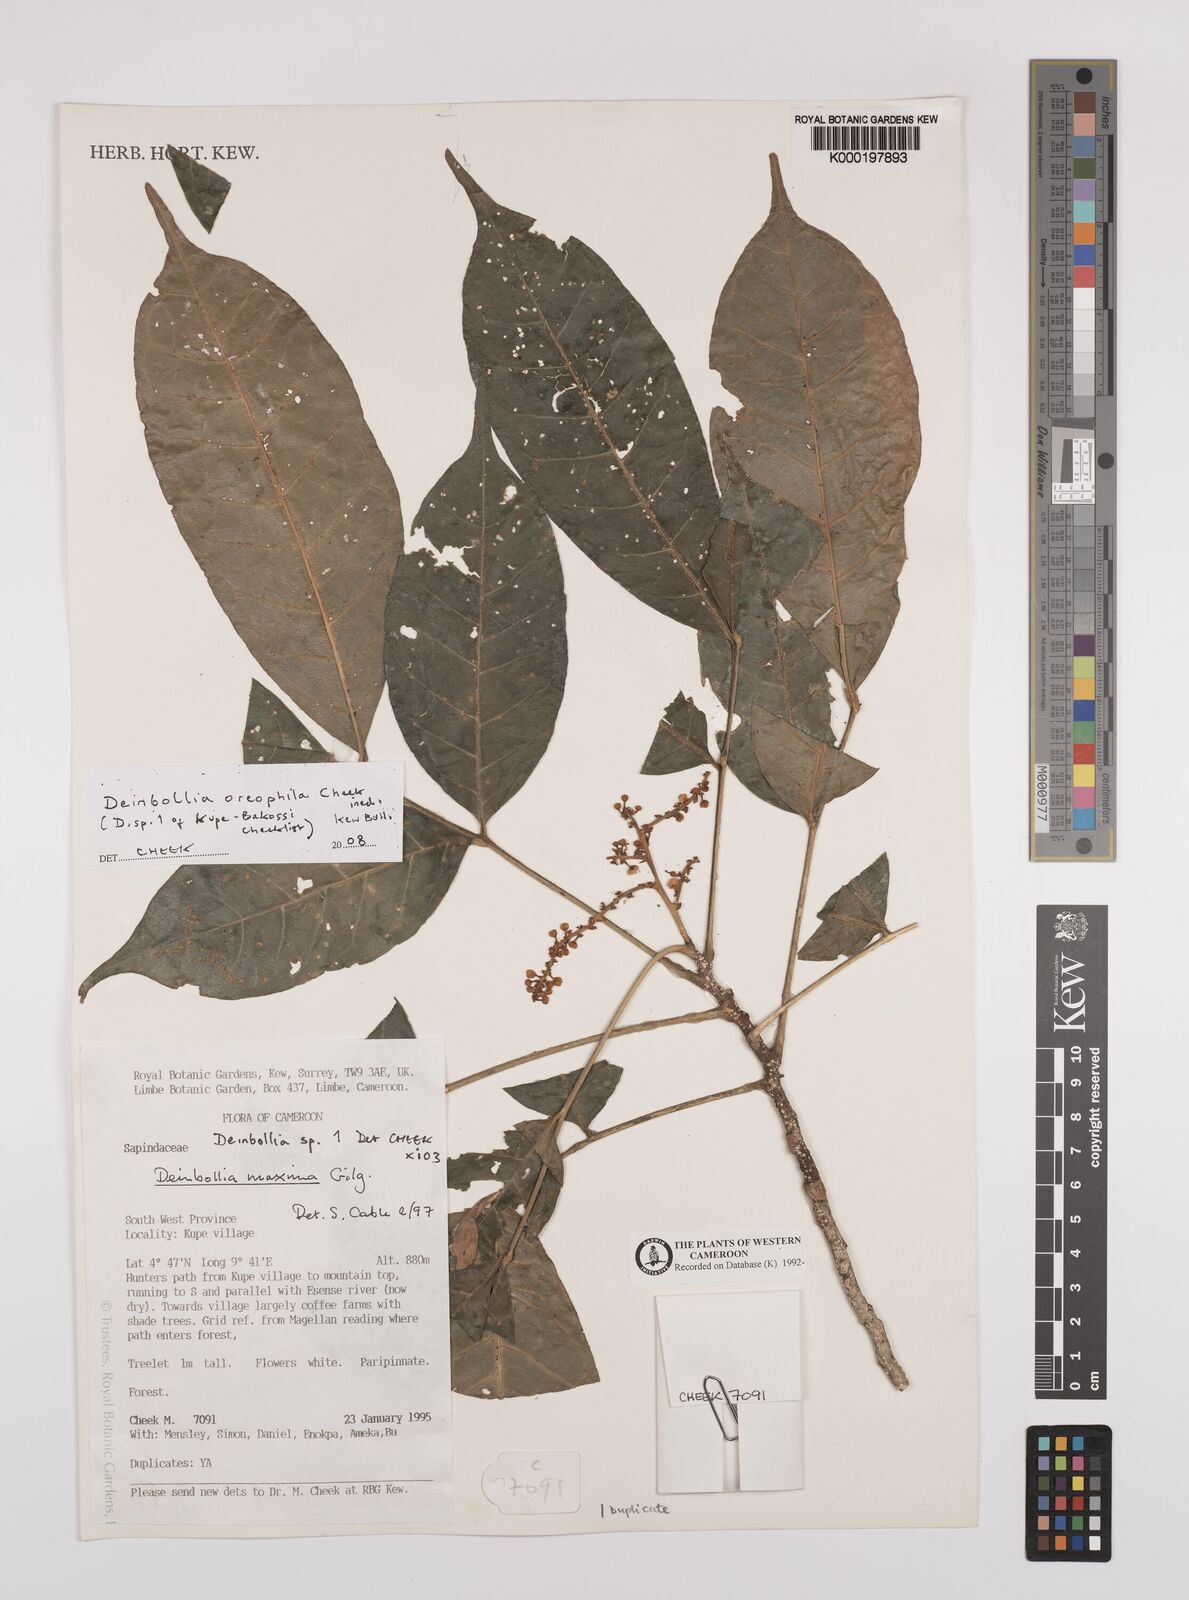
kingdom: Plantae
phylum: Tracheophyta
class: Magnoliopsida
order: Sapindales
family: Sapindaceae
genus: Deinbollia
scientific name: Deinbollia oreophila
